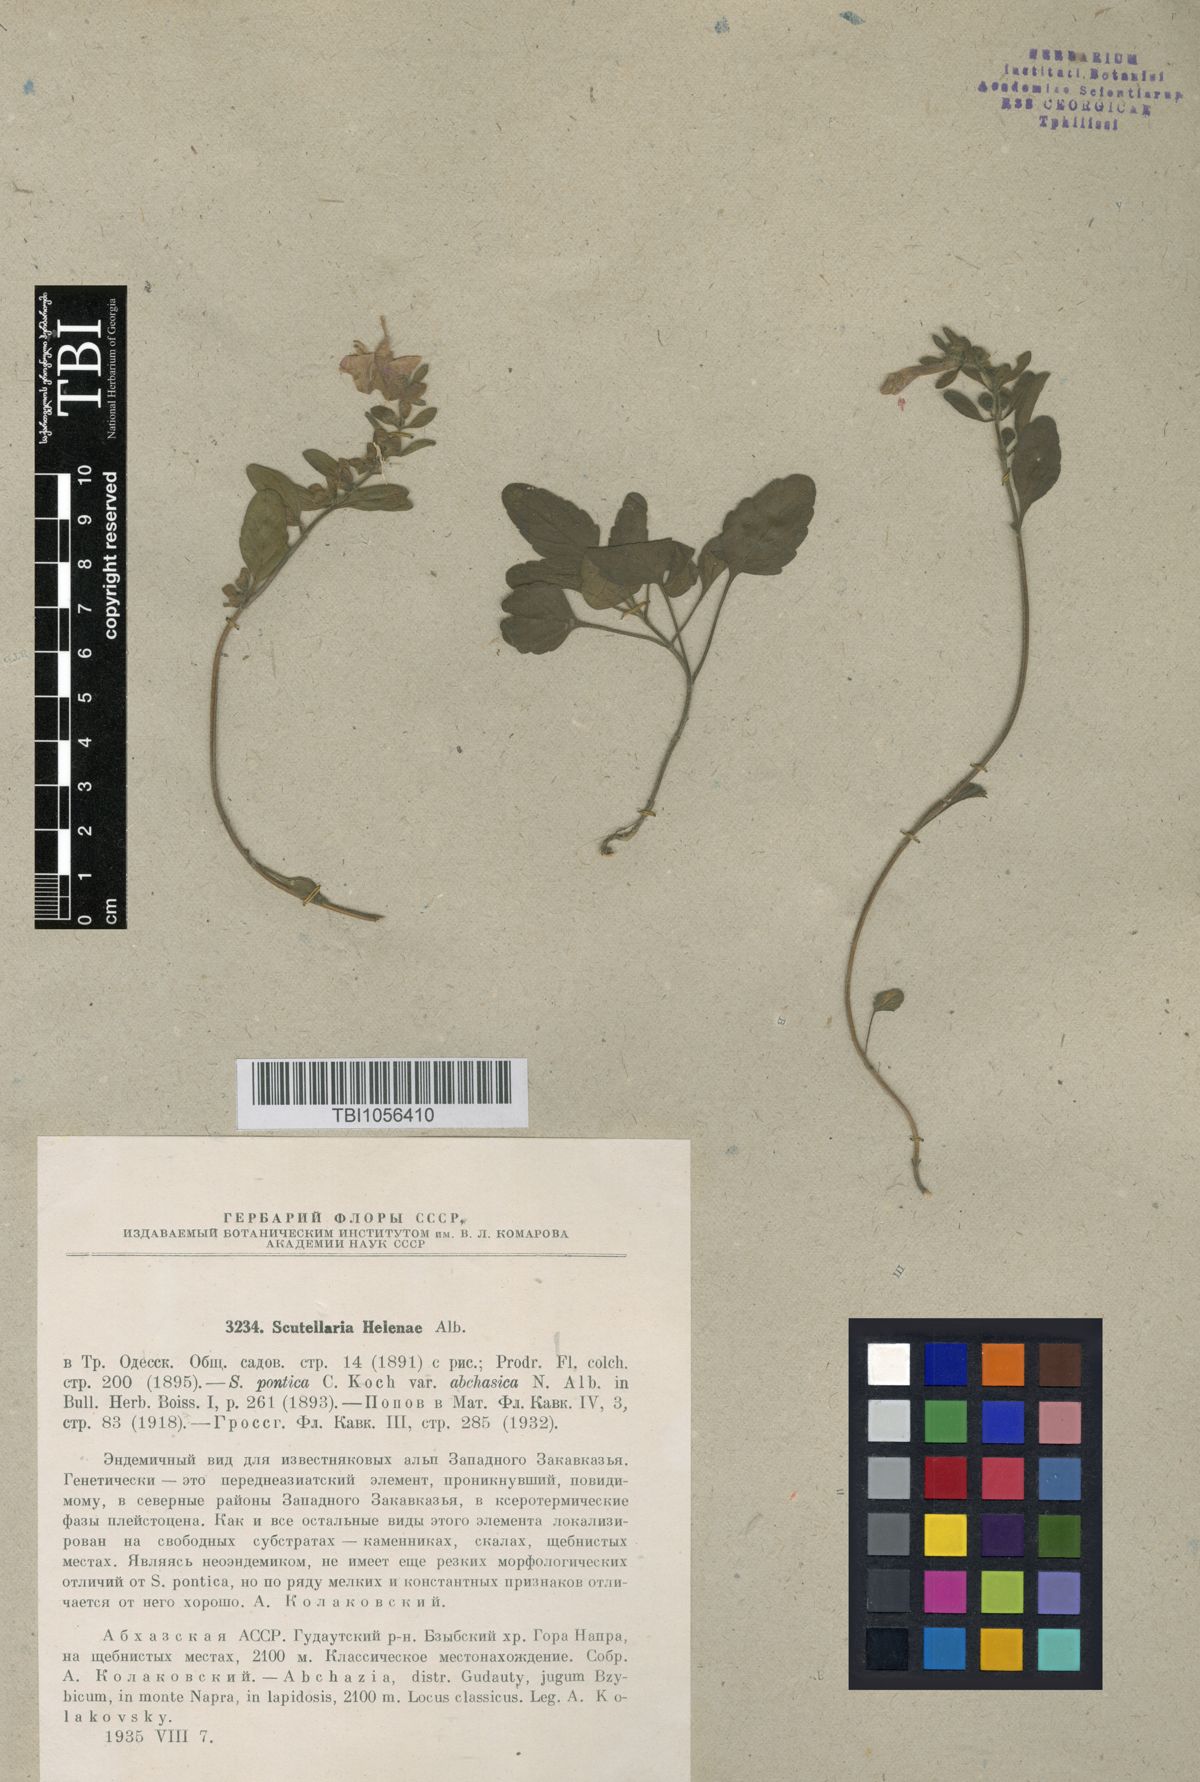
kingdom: Plantae
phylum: Tracheophyta
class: Magnoliopsida
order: Lamiales
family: Lamiaceae
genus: Scutellaria
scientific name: Scutellaria helenae
